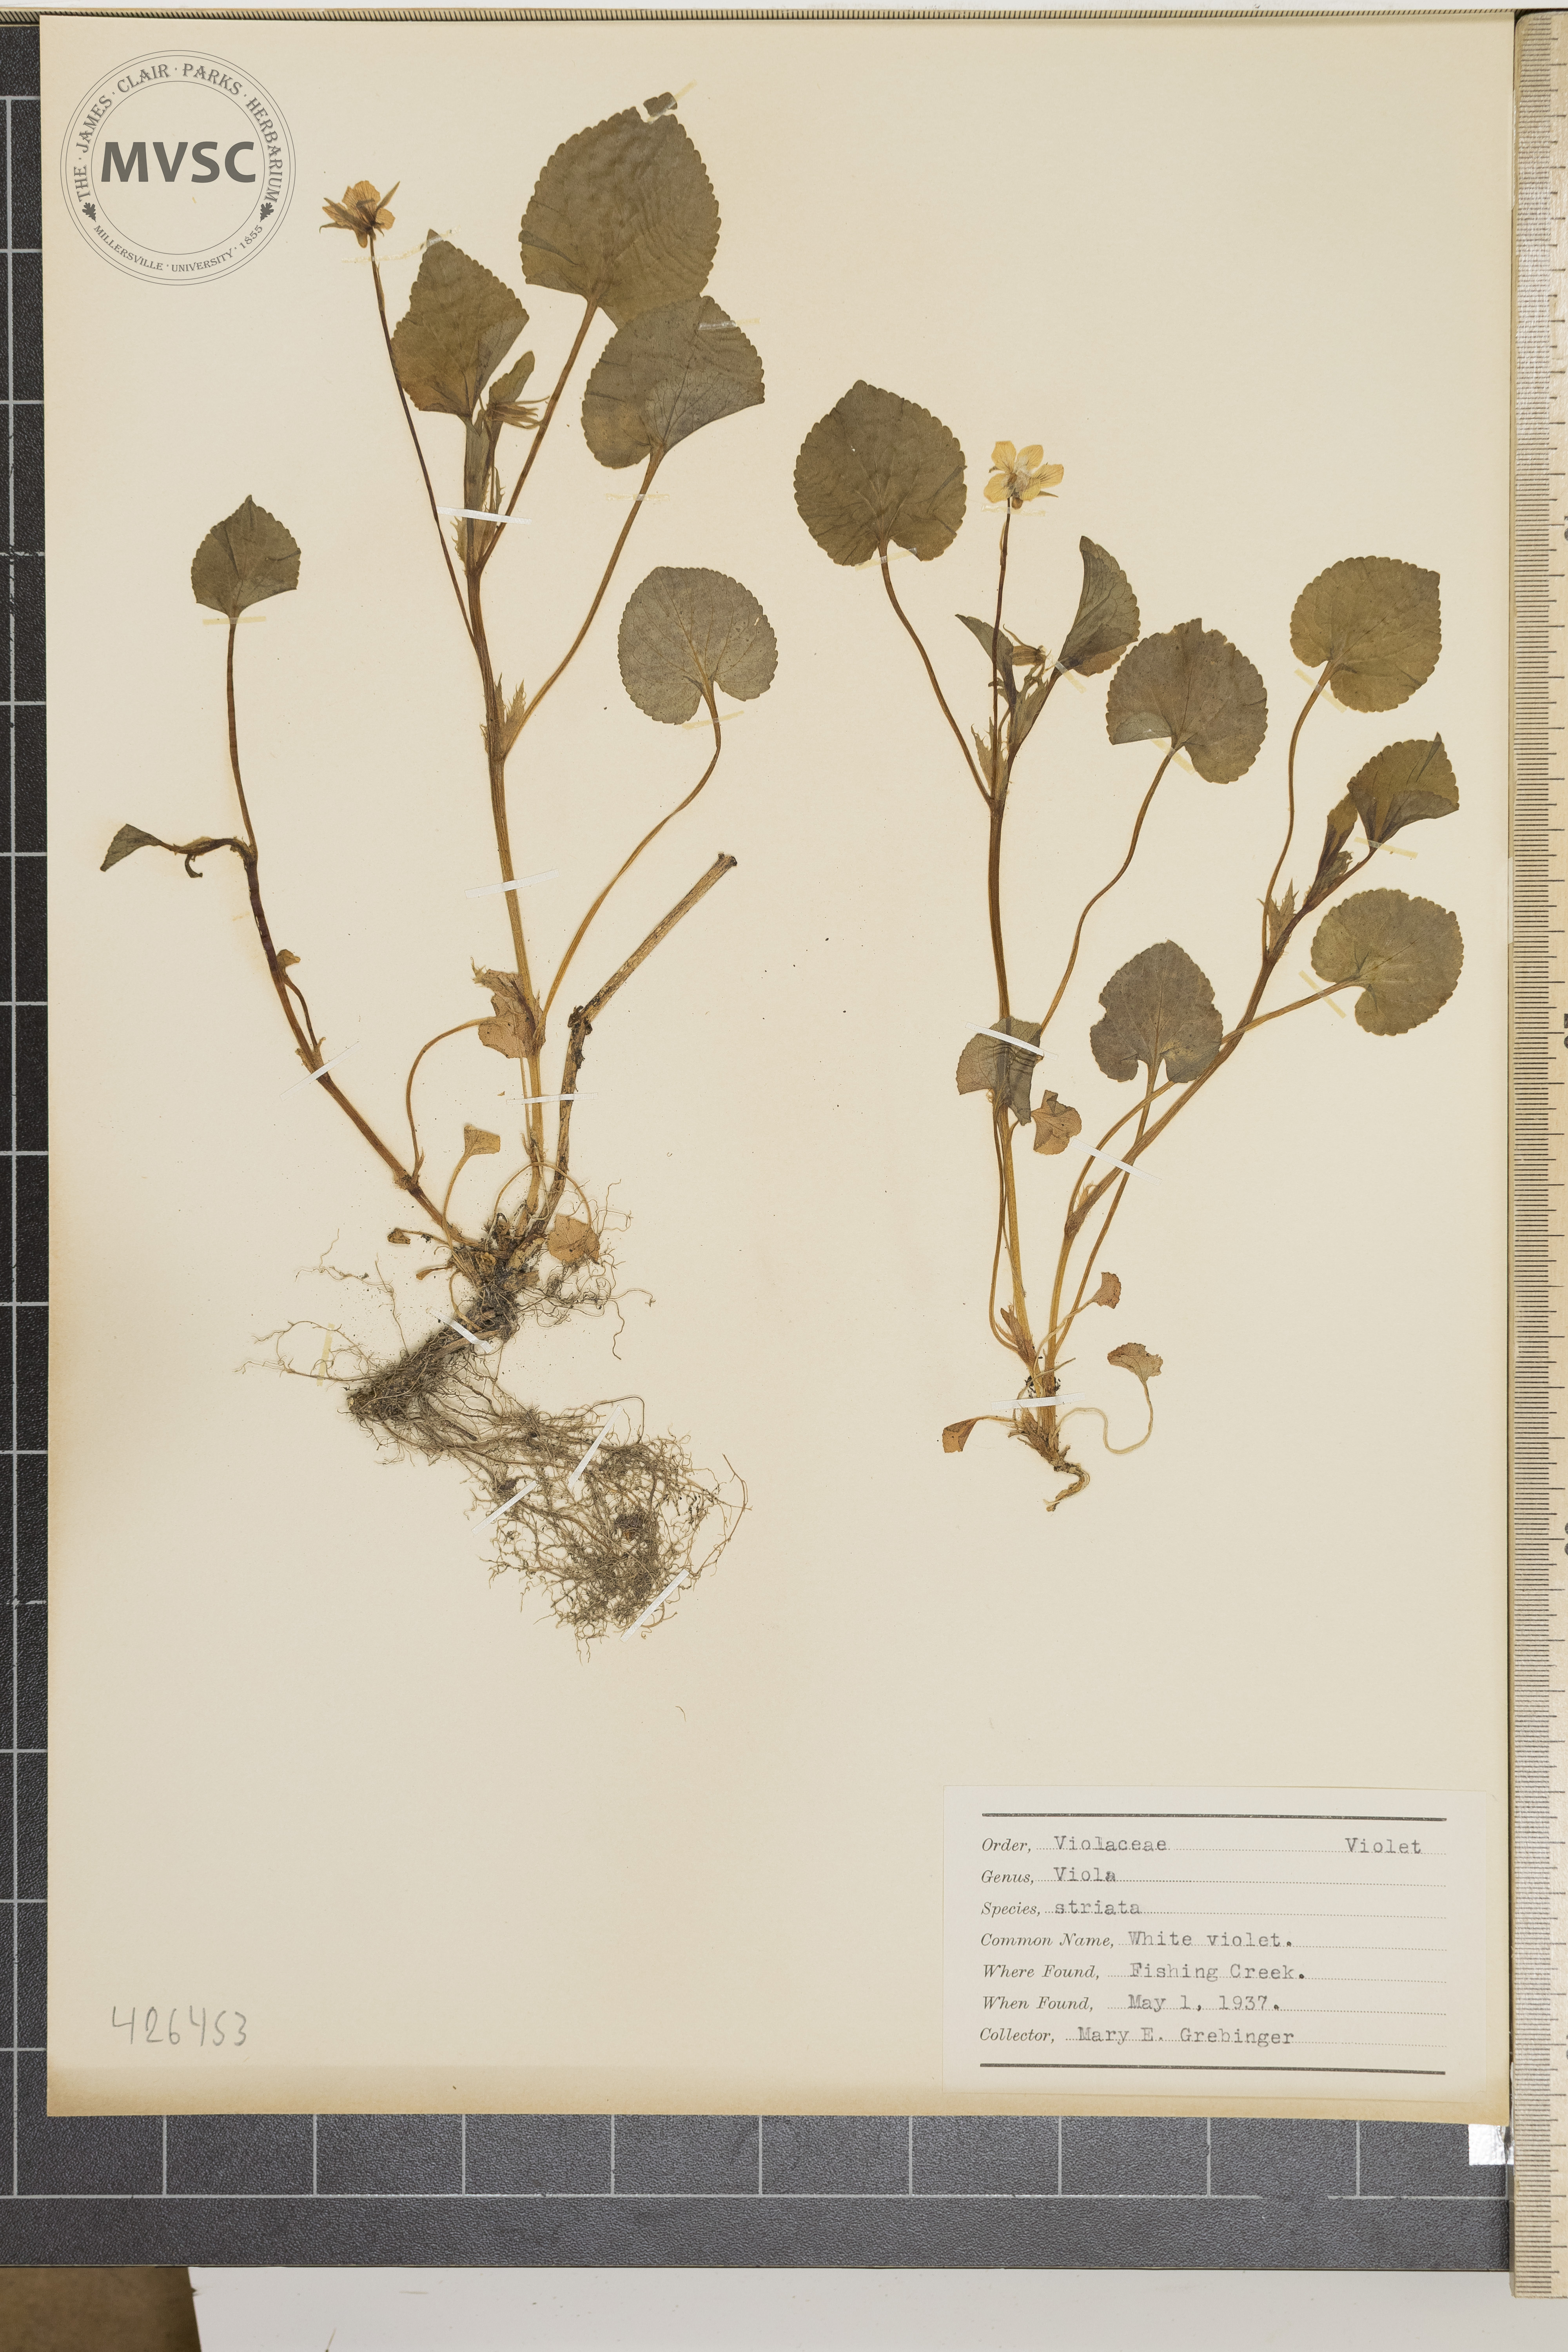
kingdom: Plantae
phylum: Tracheophyta
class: Magnoliopsida
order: Malpighiales
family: Violaceae
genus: Viola
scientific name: Viola striata
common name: White violet
